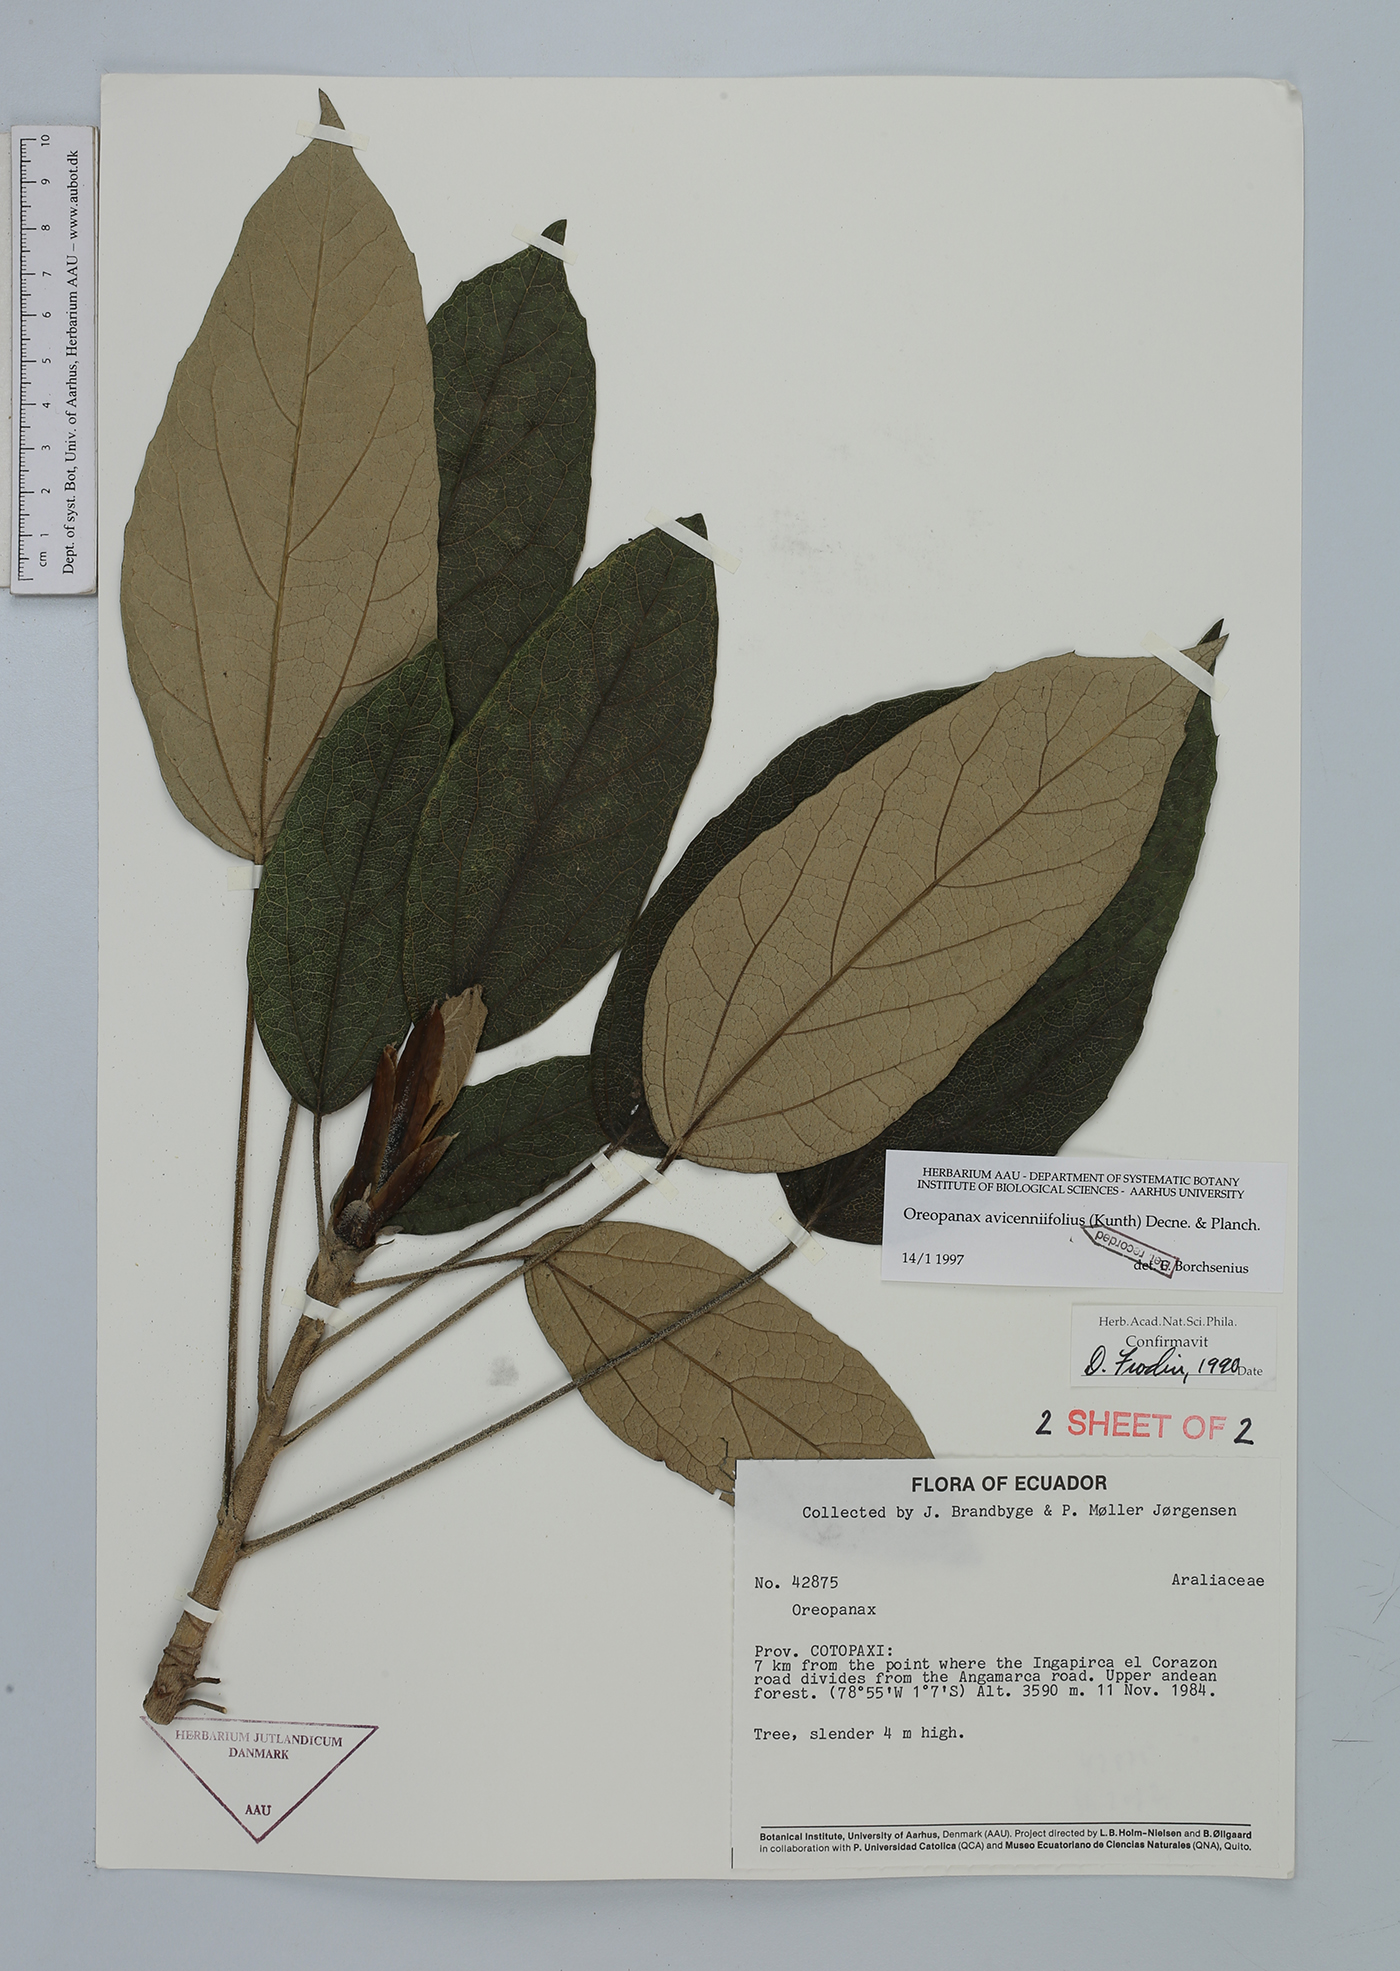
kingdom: Plantae
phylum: Tracheophyta
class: Magnoliopsida
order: Apiales
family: Araliaceae
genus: Oreopanax
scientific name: Oreopanax avicenniifolius
